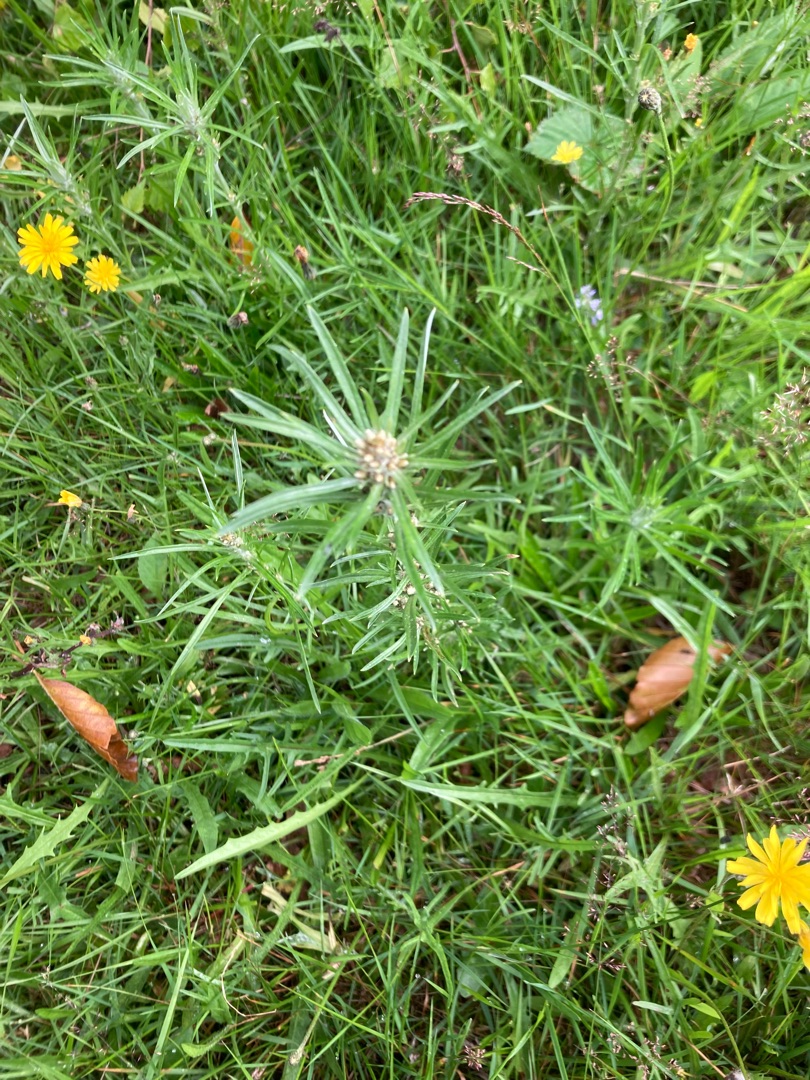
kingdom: Plantae
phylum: Tracheophyta
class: Magnoliopsida
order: Asterales
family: Asteraceae
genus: Omalotheca
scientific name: Omalotheca sylvatica
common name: Rank evighedsblomst
